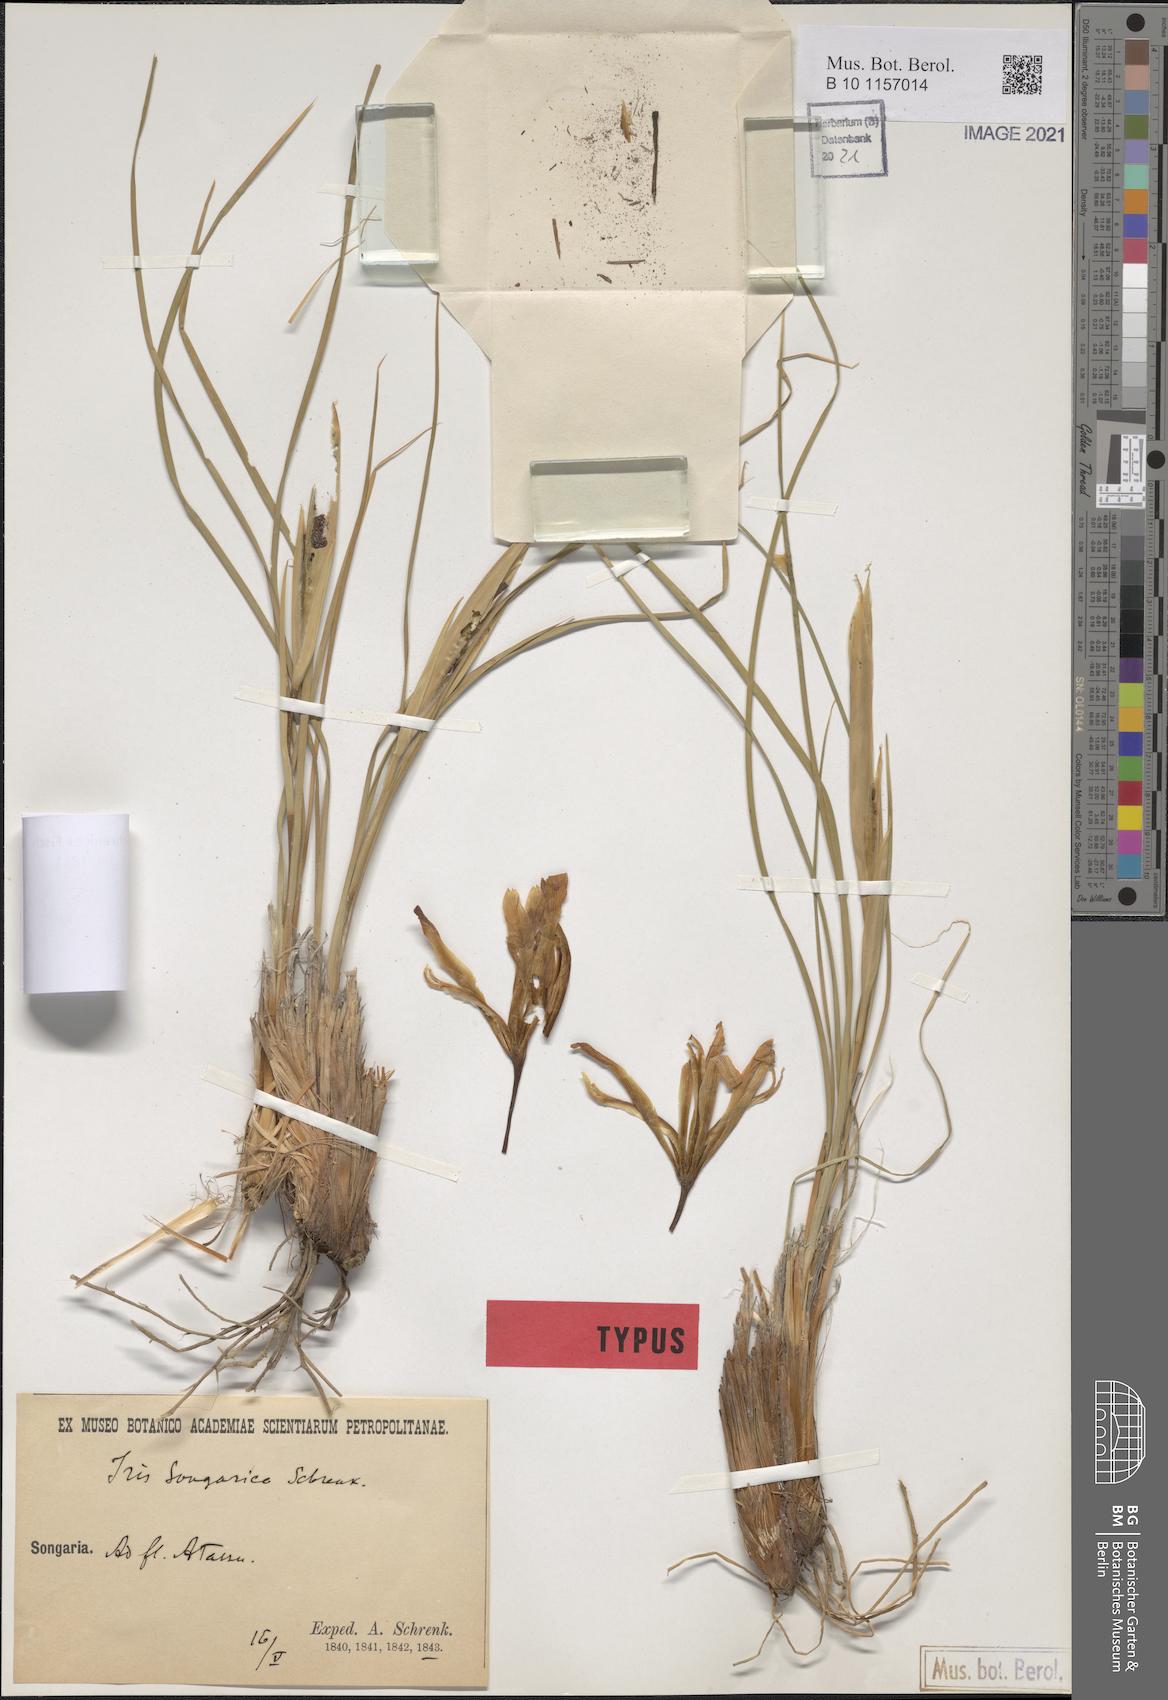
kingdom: Plantae
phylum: Tracheophyta
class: Liliopsida
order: Asparagales
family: Iridaceae
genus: Iris
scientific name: Iris songarica
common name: Songar iris
